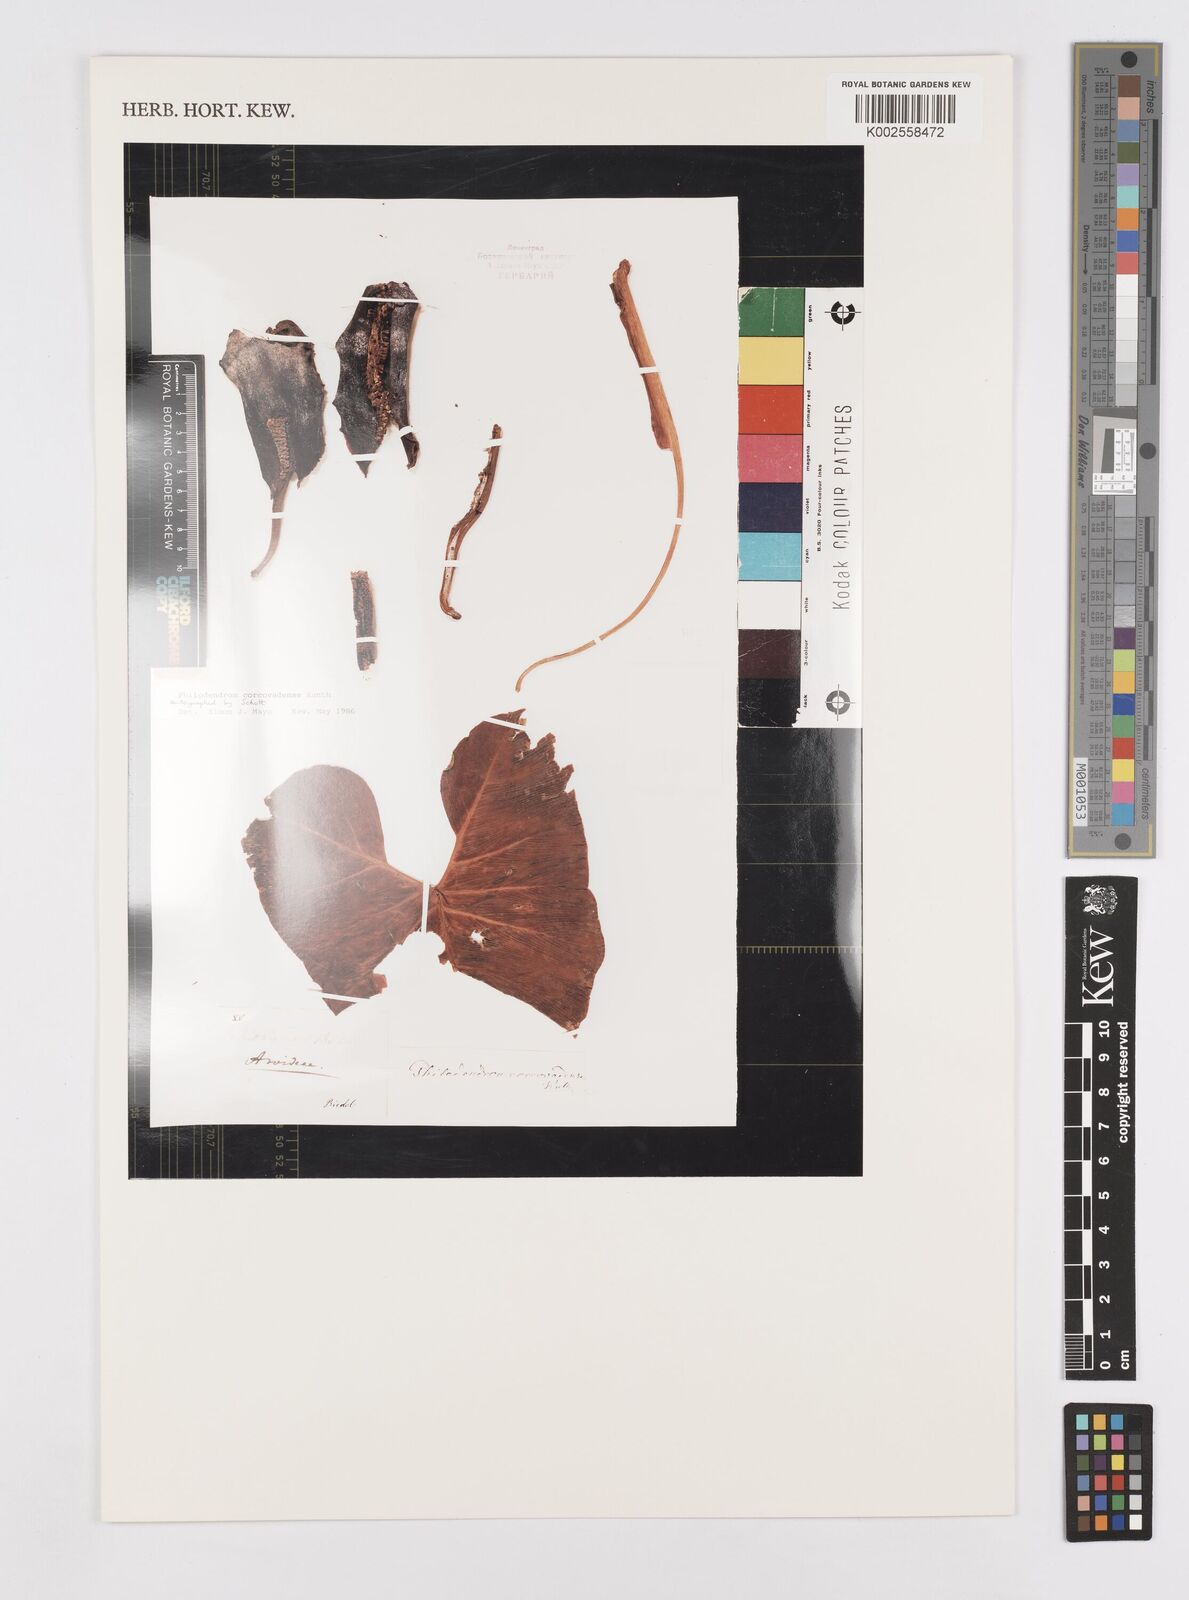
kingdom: Plantae
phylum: Tracheophyta
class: Liliopsida
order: Alismatales
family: Araceae
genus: Thaumatophyllum
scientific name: Thaumatophyllum corcovadense
